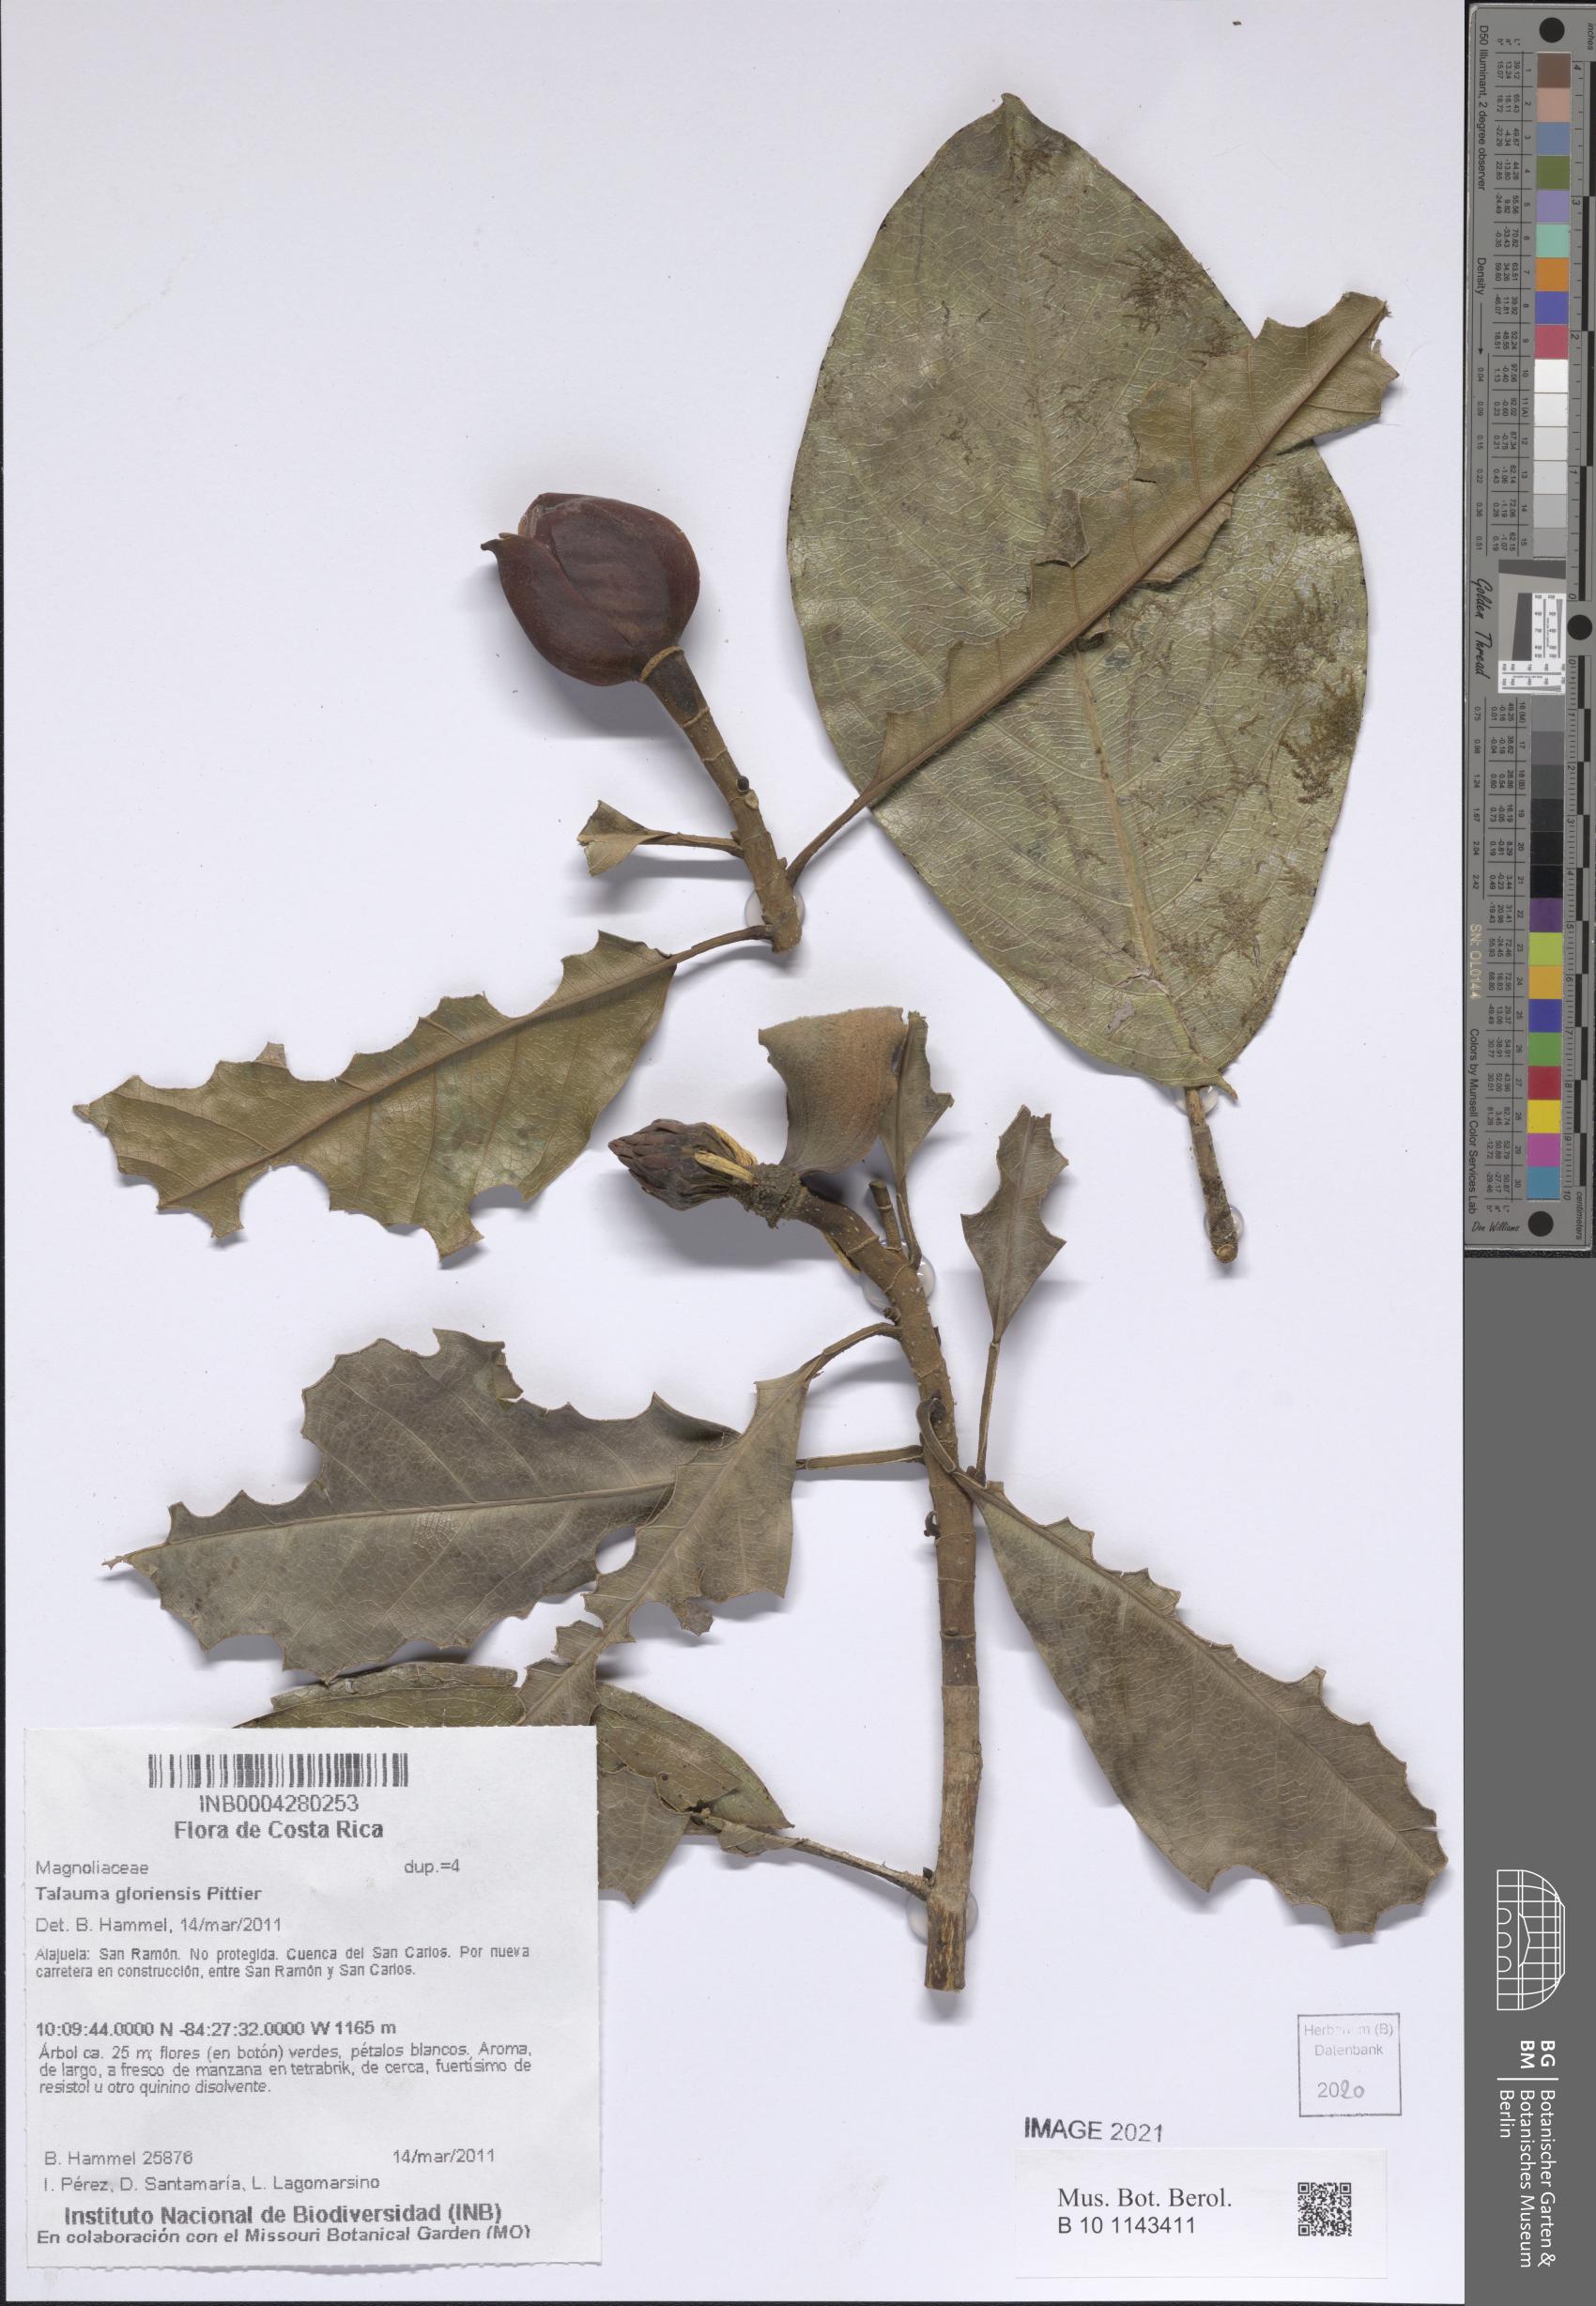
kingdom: Plantae
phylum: Tracheophyta
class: Magnoliopsida
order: Magnoliales
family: Magnoliaceae
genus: Magnolia
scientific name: Magnolia gloriensis
